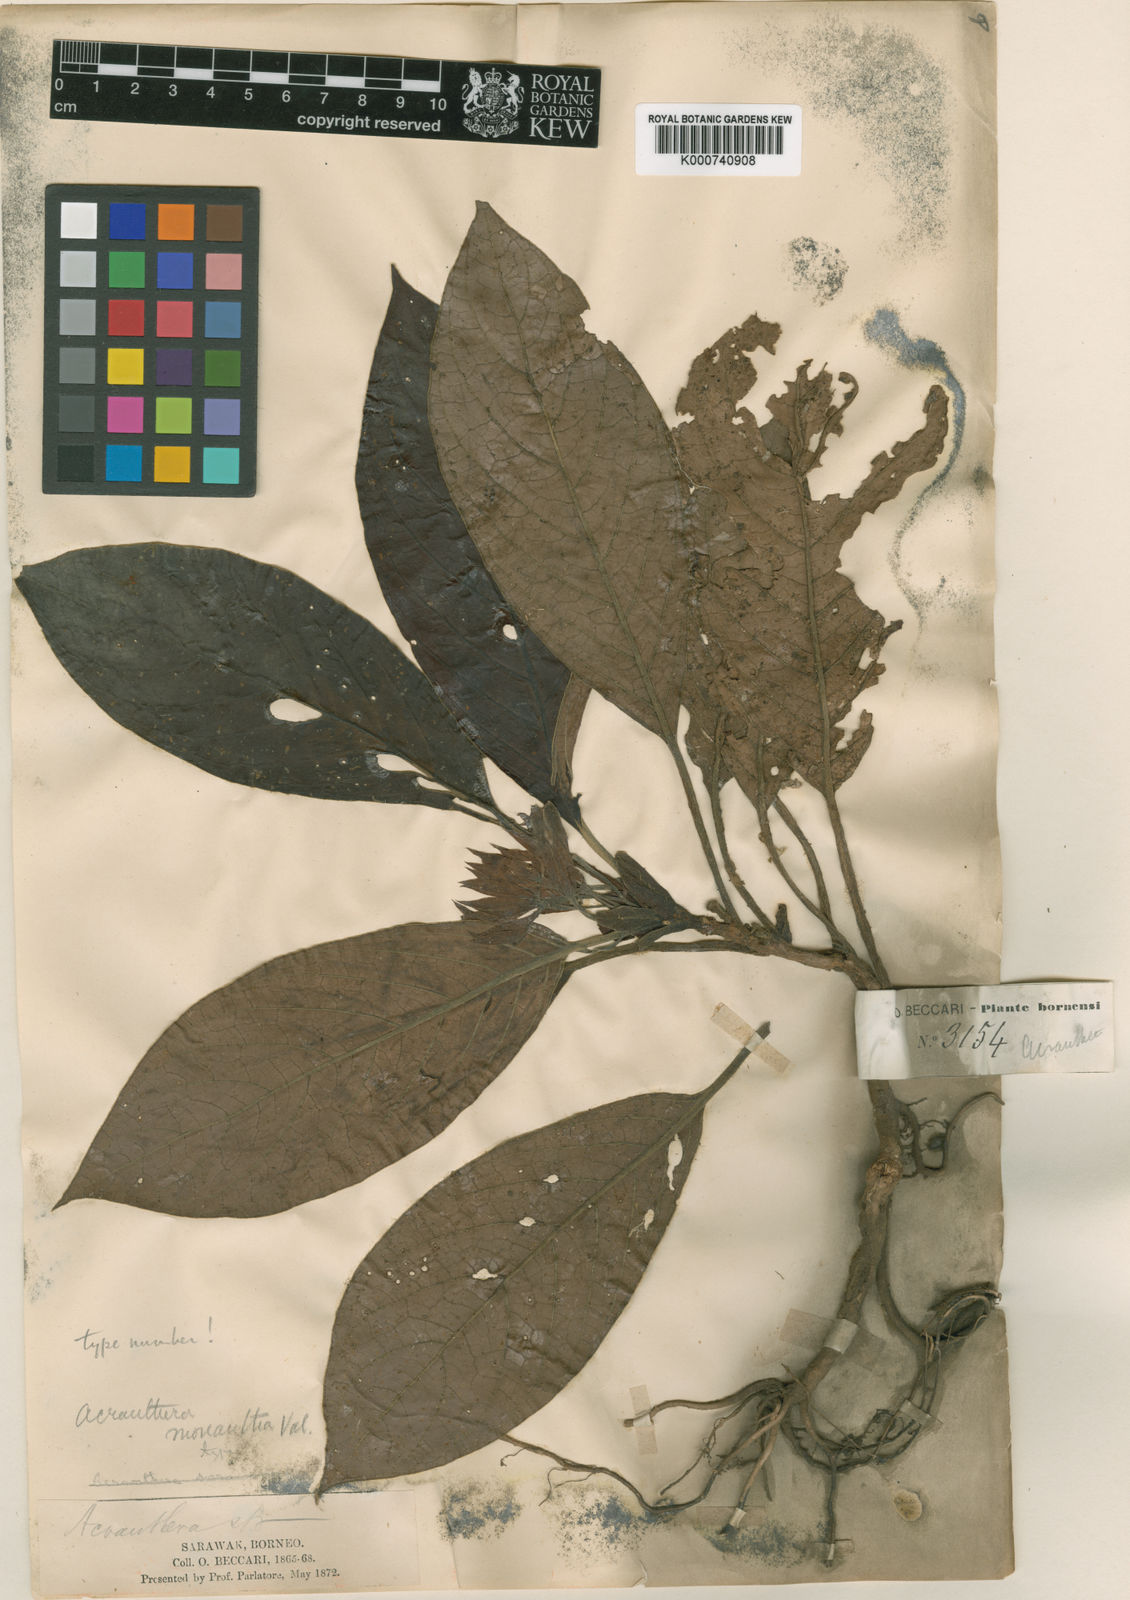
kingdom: Plantae
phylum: Tracheophyta
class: Magnoliopsida
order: Gentianales
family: Rubiaceae
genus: Acranthera
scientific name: Acranthera monantha
